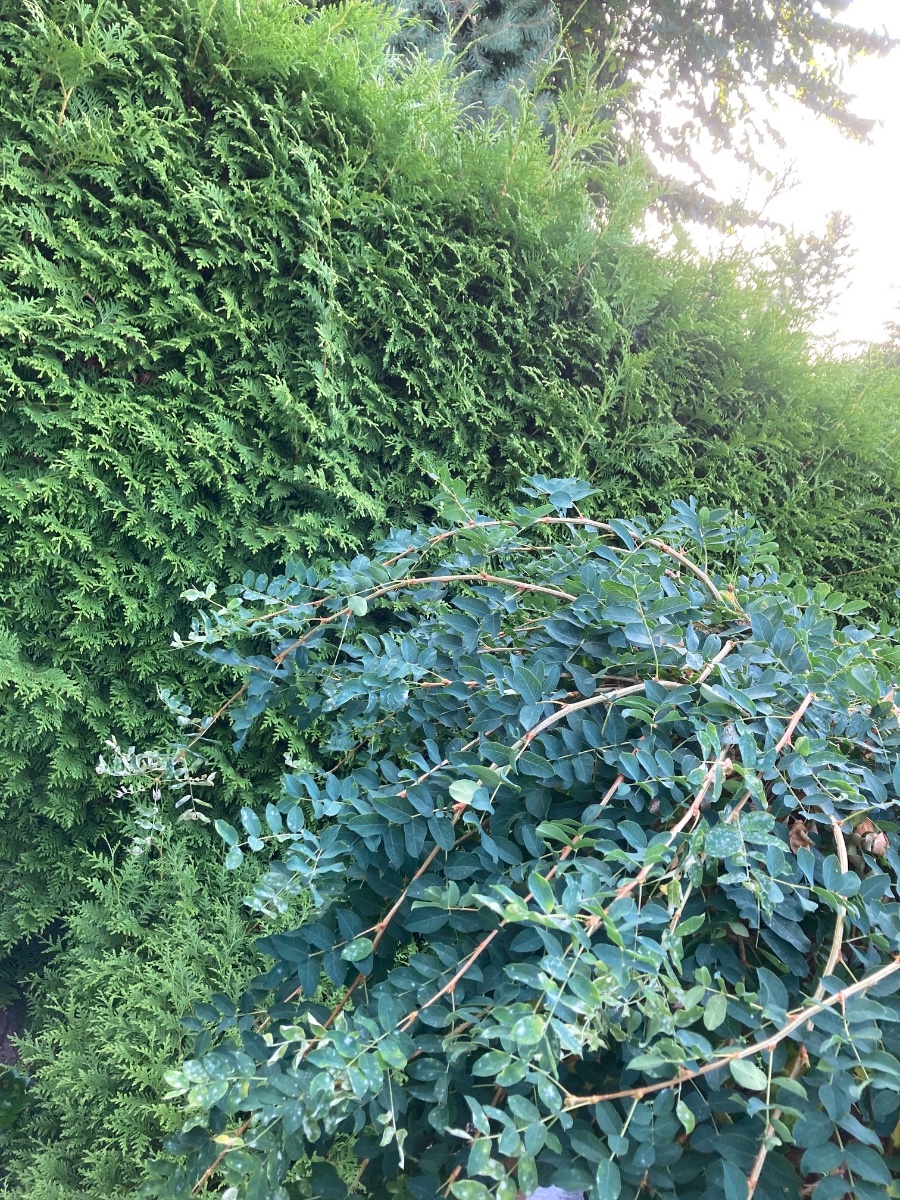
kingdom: Fungi
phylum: Ascomycota
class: Leotiomycetes
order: Helotiales
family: Erysiphaceae
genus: Erysiphe
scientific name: Erysiphe robiniae
